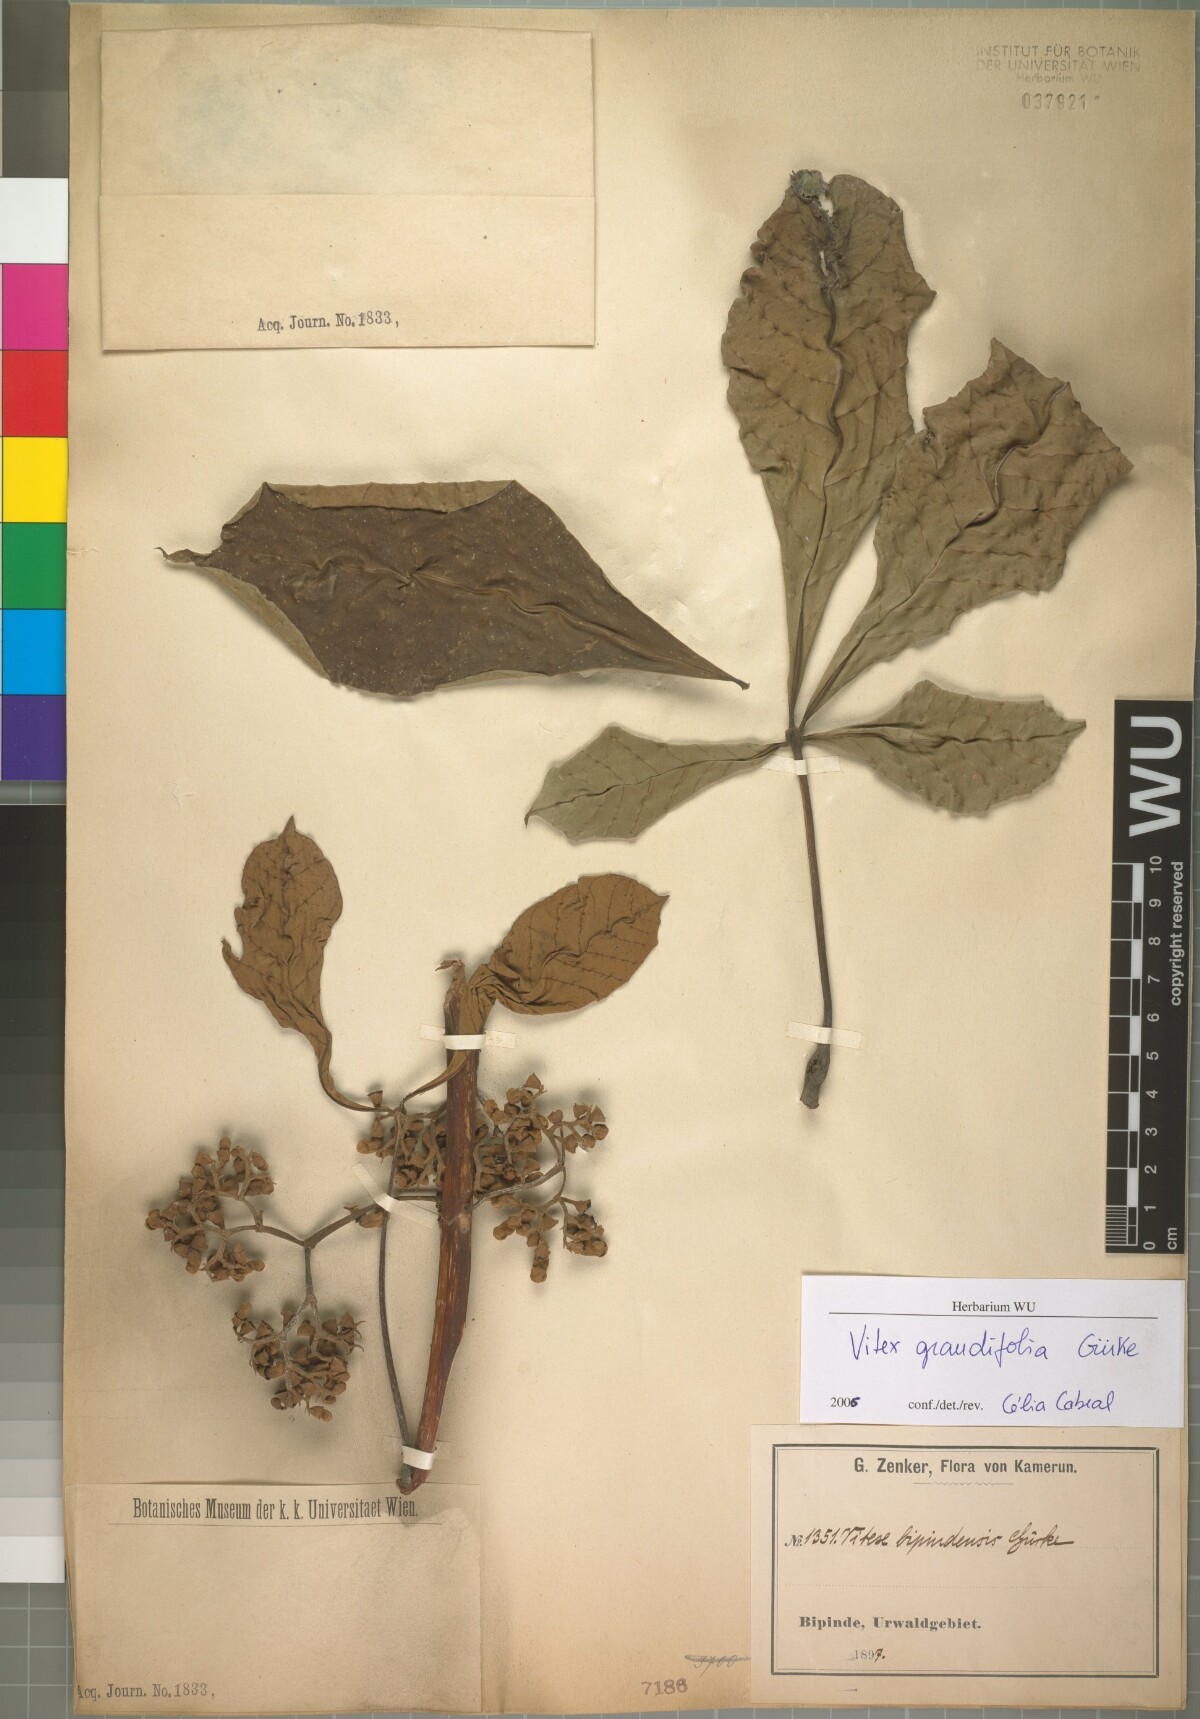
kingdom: Plantae
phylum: Tracheophyta
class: Magnoliopsida
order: Lamiales
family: Lamiaceae
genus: Vitex
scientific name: Vitex grandifolia
